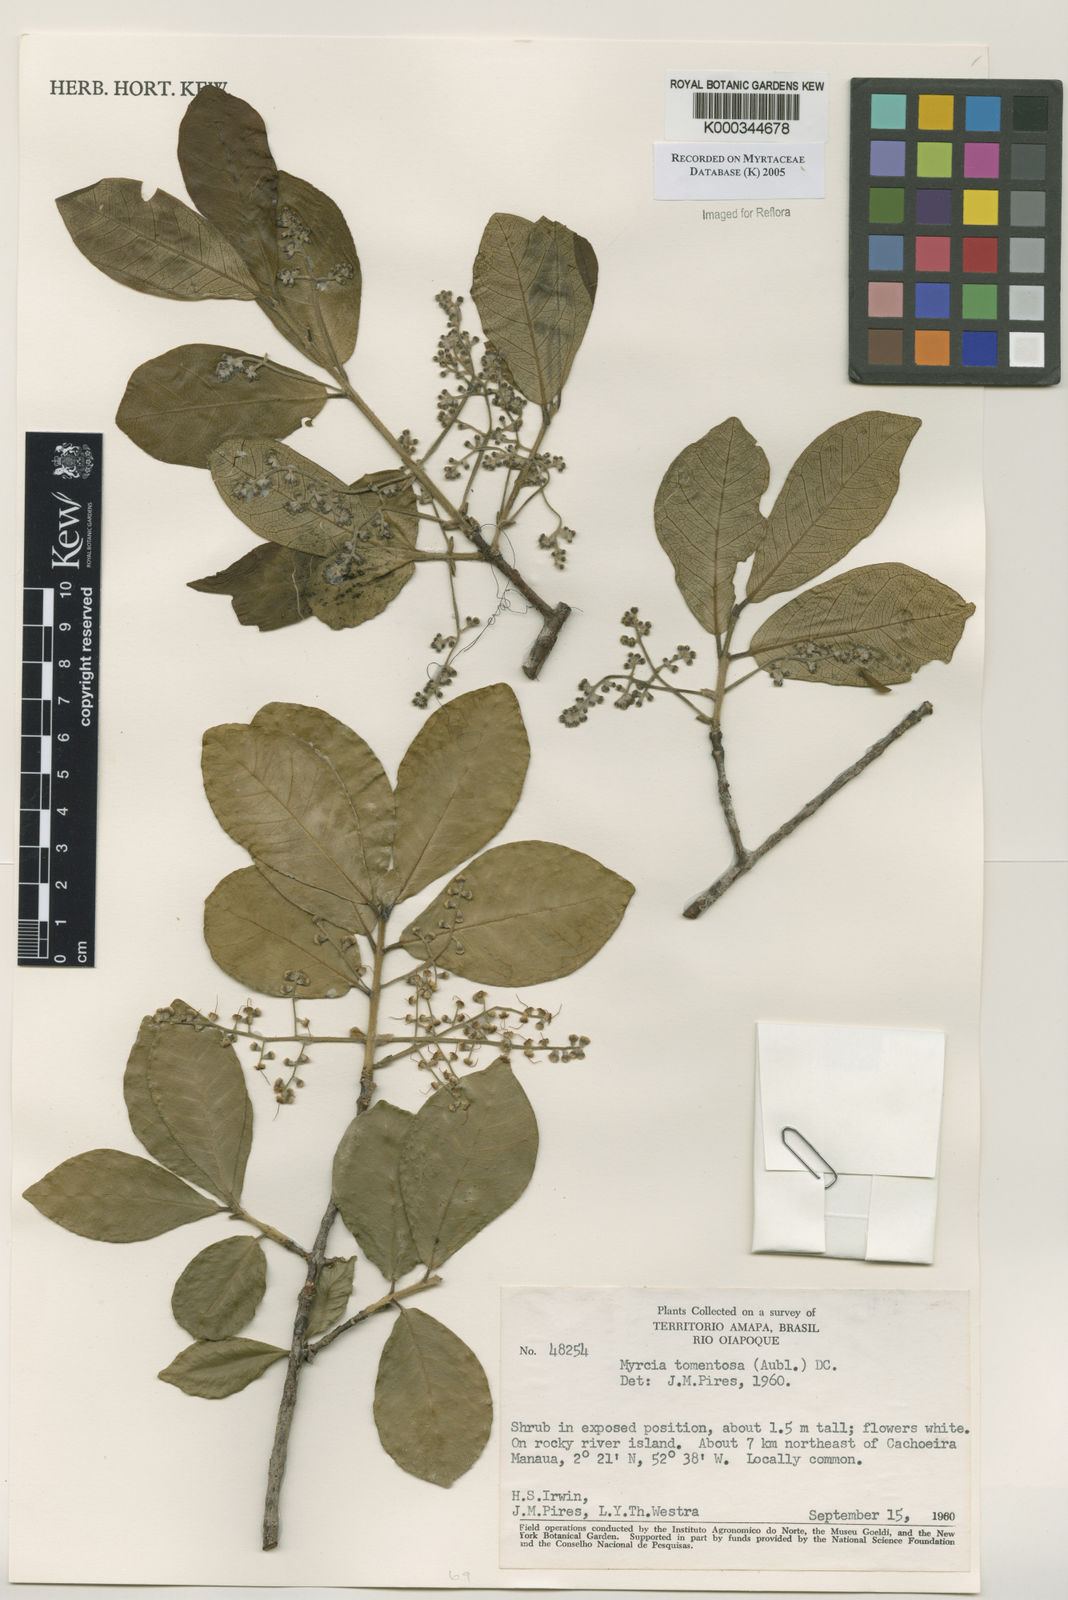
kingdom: Plantae
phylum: Tracheophyta
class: Magnoliopsida
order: Myrtales
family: Myrtaceae
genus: Myrcia
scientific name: Myrcia tomentosa
